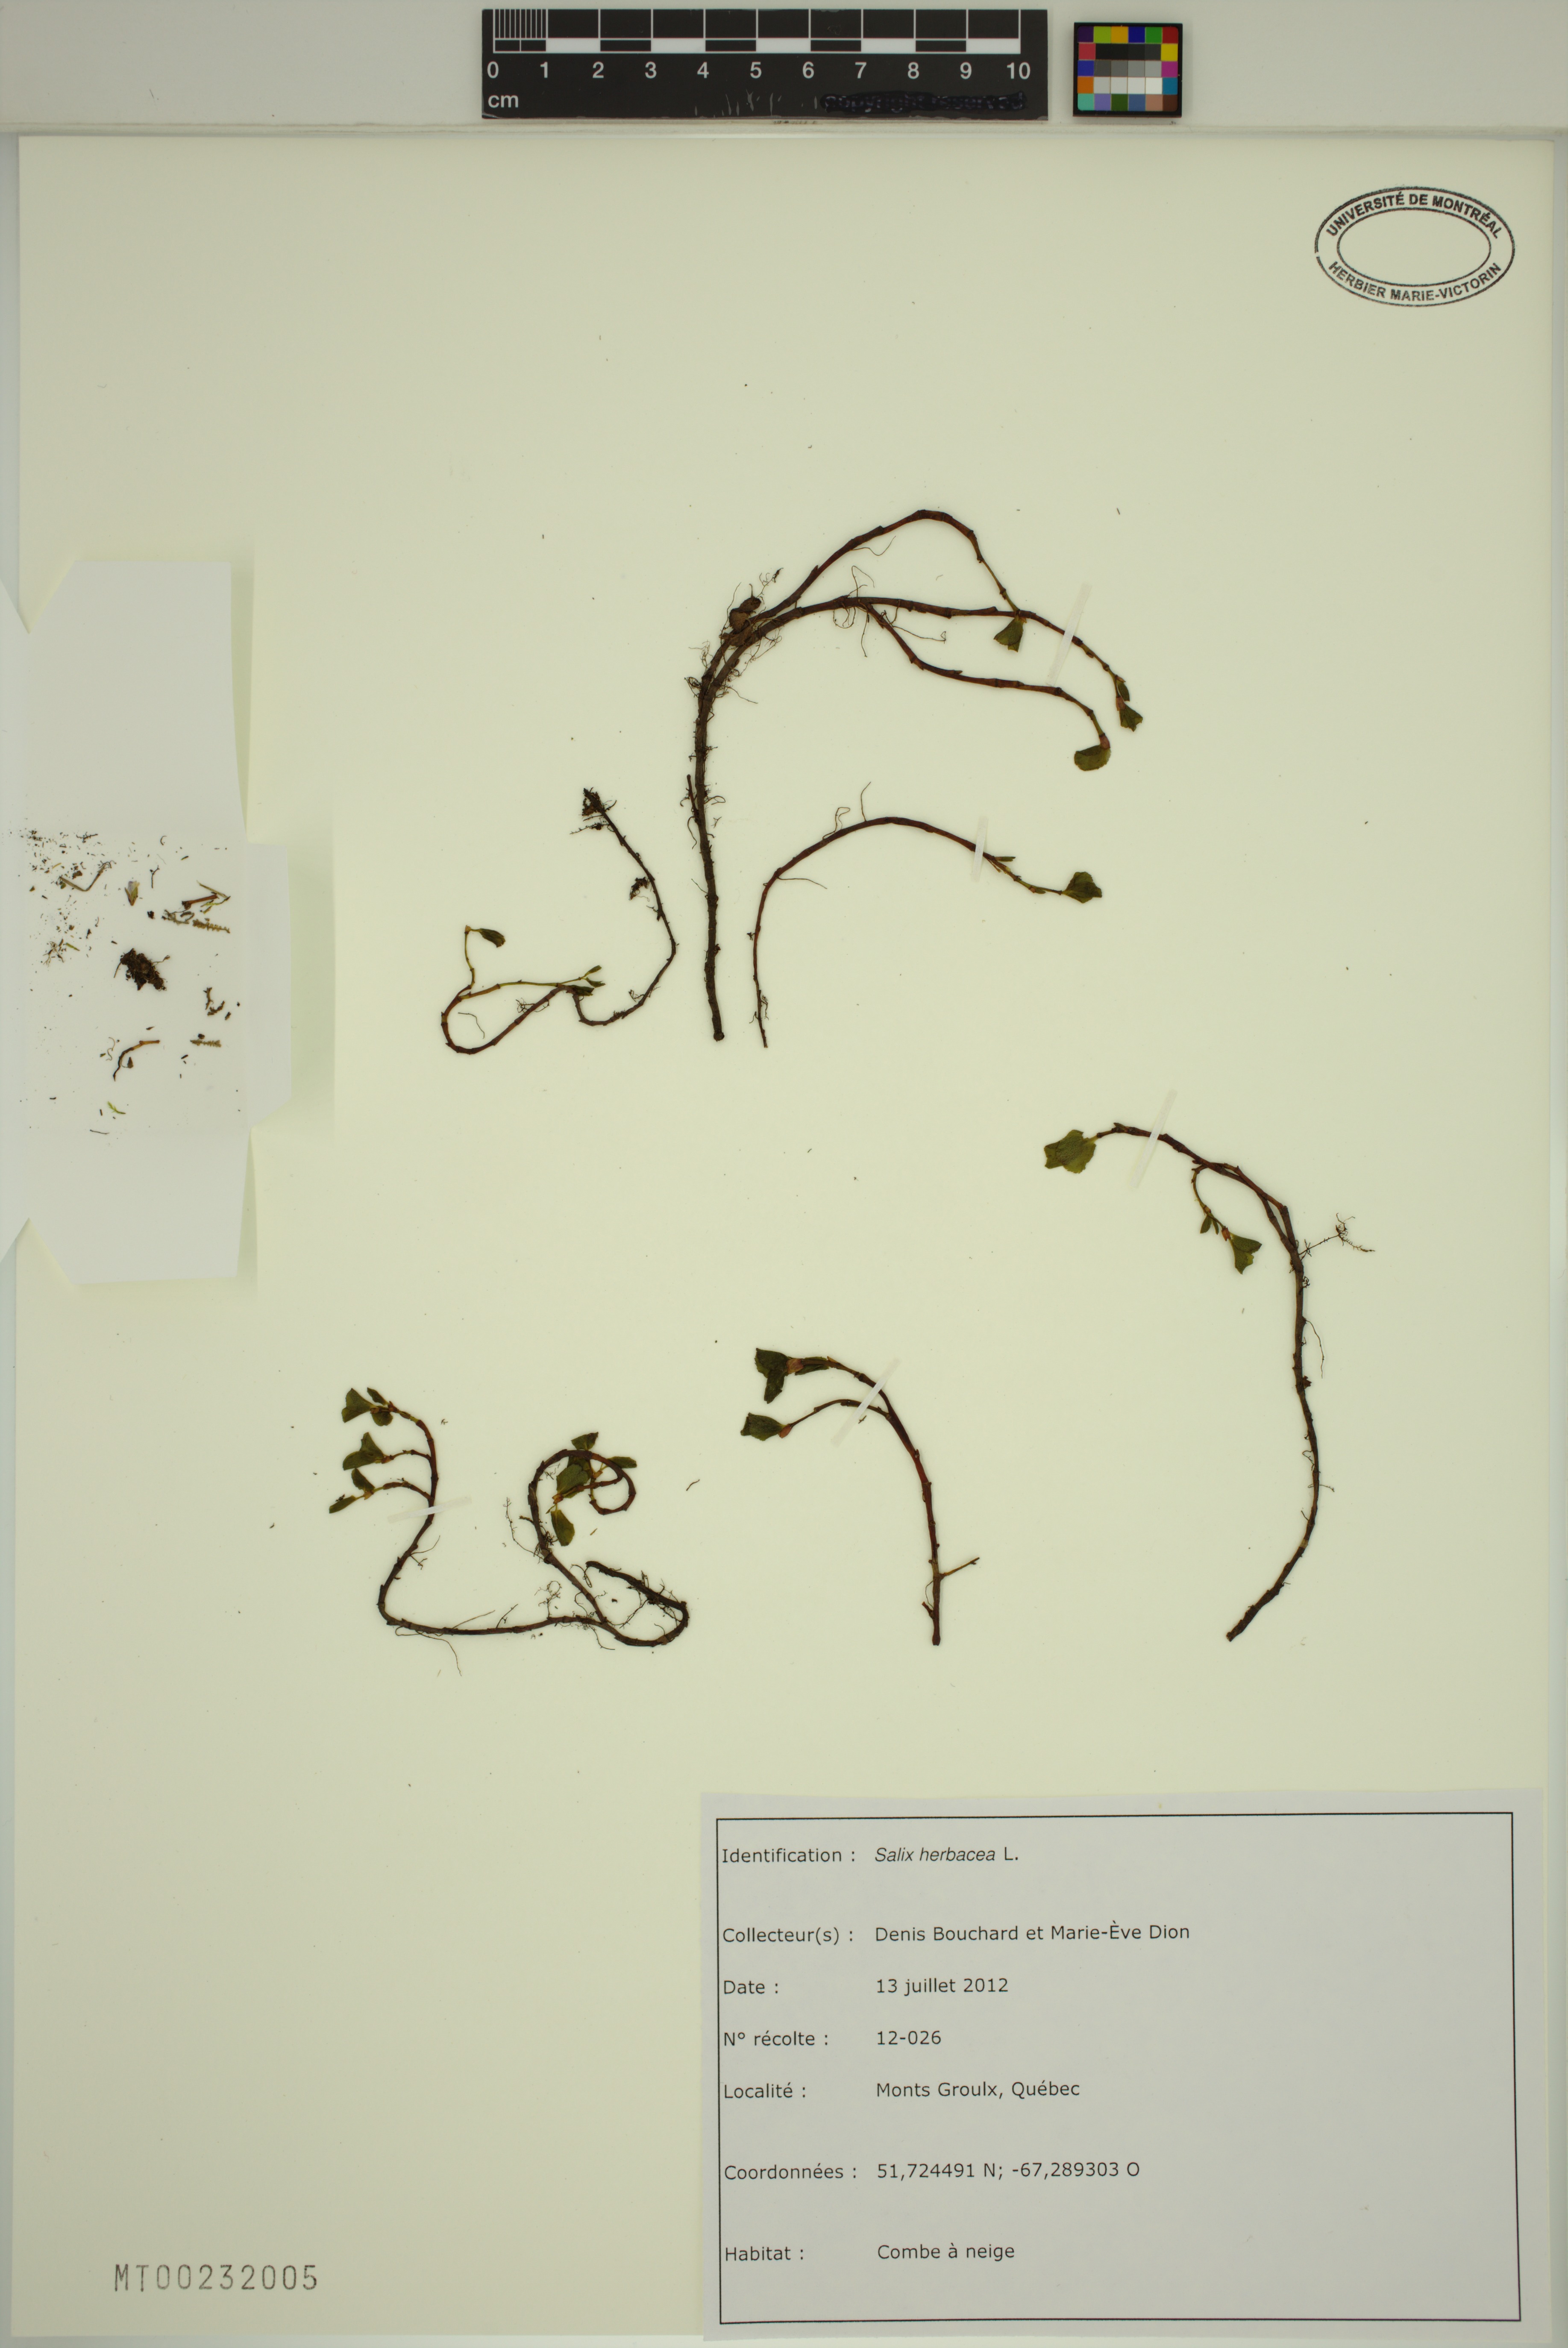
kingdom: Plantae
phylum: Tracheophyta
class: Magnoliopsida
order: Malpighiales
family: Salicaceae
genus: Salix
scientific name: Salix herbacea
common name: Dwarf willow
